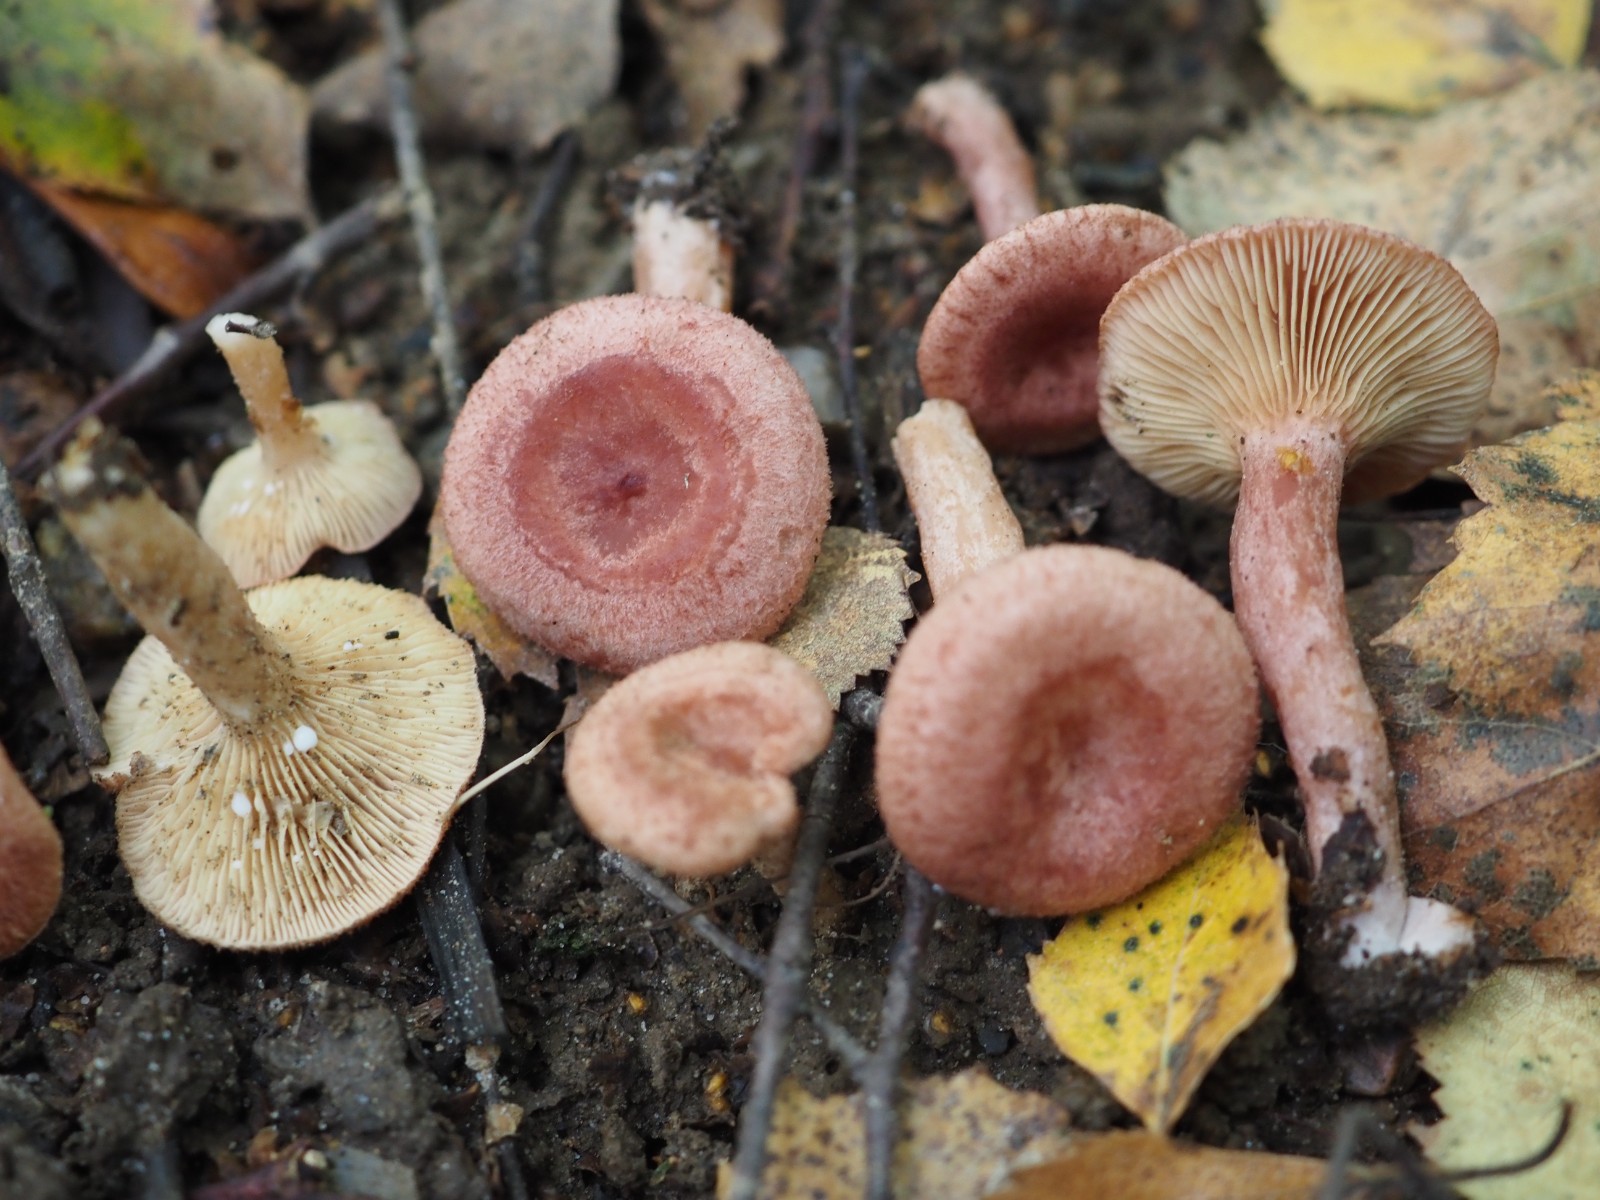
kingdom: Fungi
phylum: Basidiomycota
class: Agaricomycetes
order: Russulales
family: Russulaceae
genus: Lactarius
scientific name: Lactarius spinosulus
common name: småskællet mælkehat
